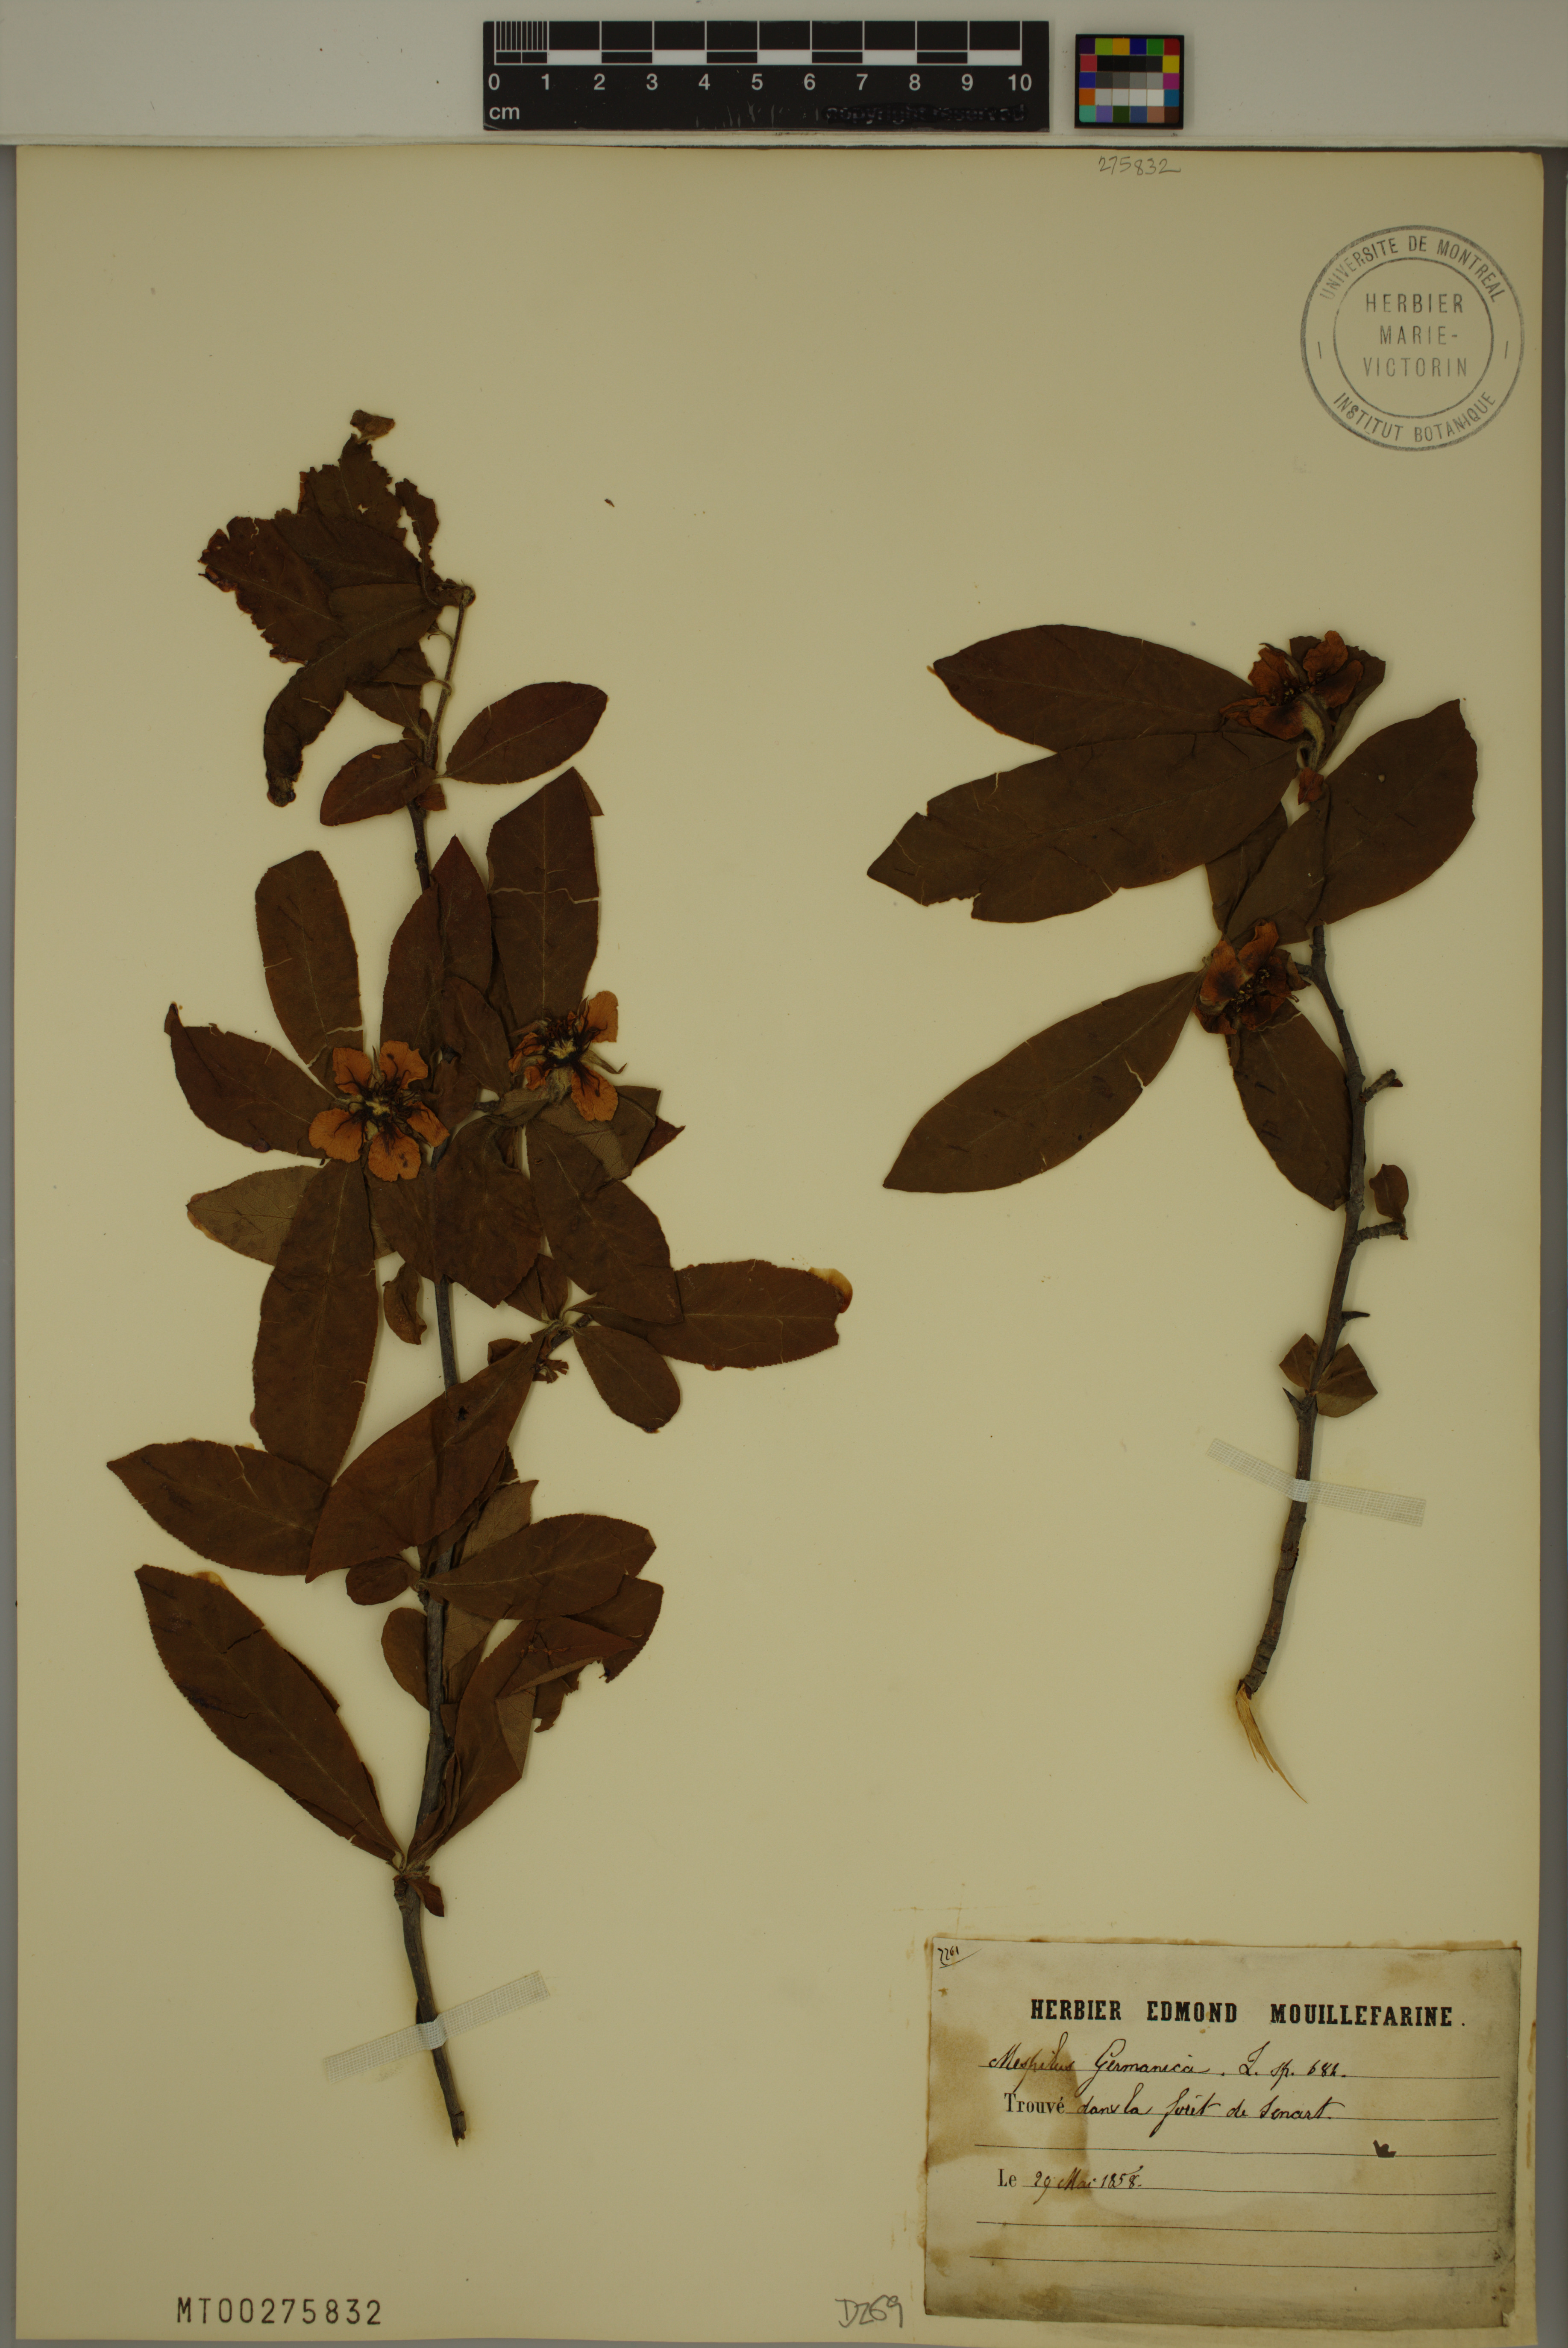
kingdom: Plantae
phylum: Tracheophyta
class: Magnoliopsida
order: Rosales
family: Rosaceae
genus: Mespilus
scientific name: Mespilus germanica
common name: Medlar
